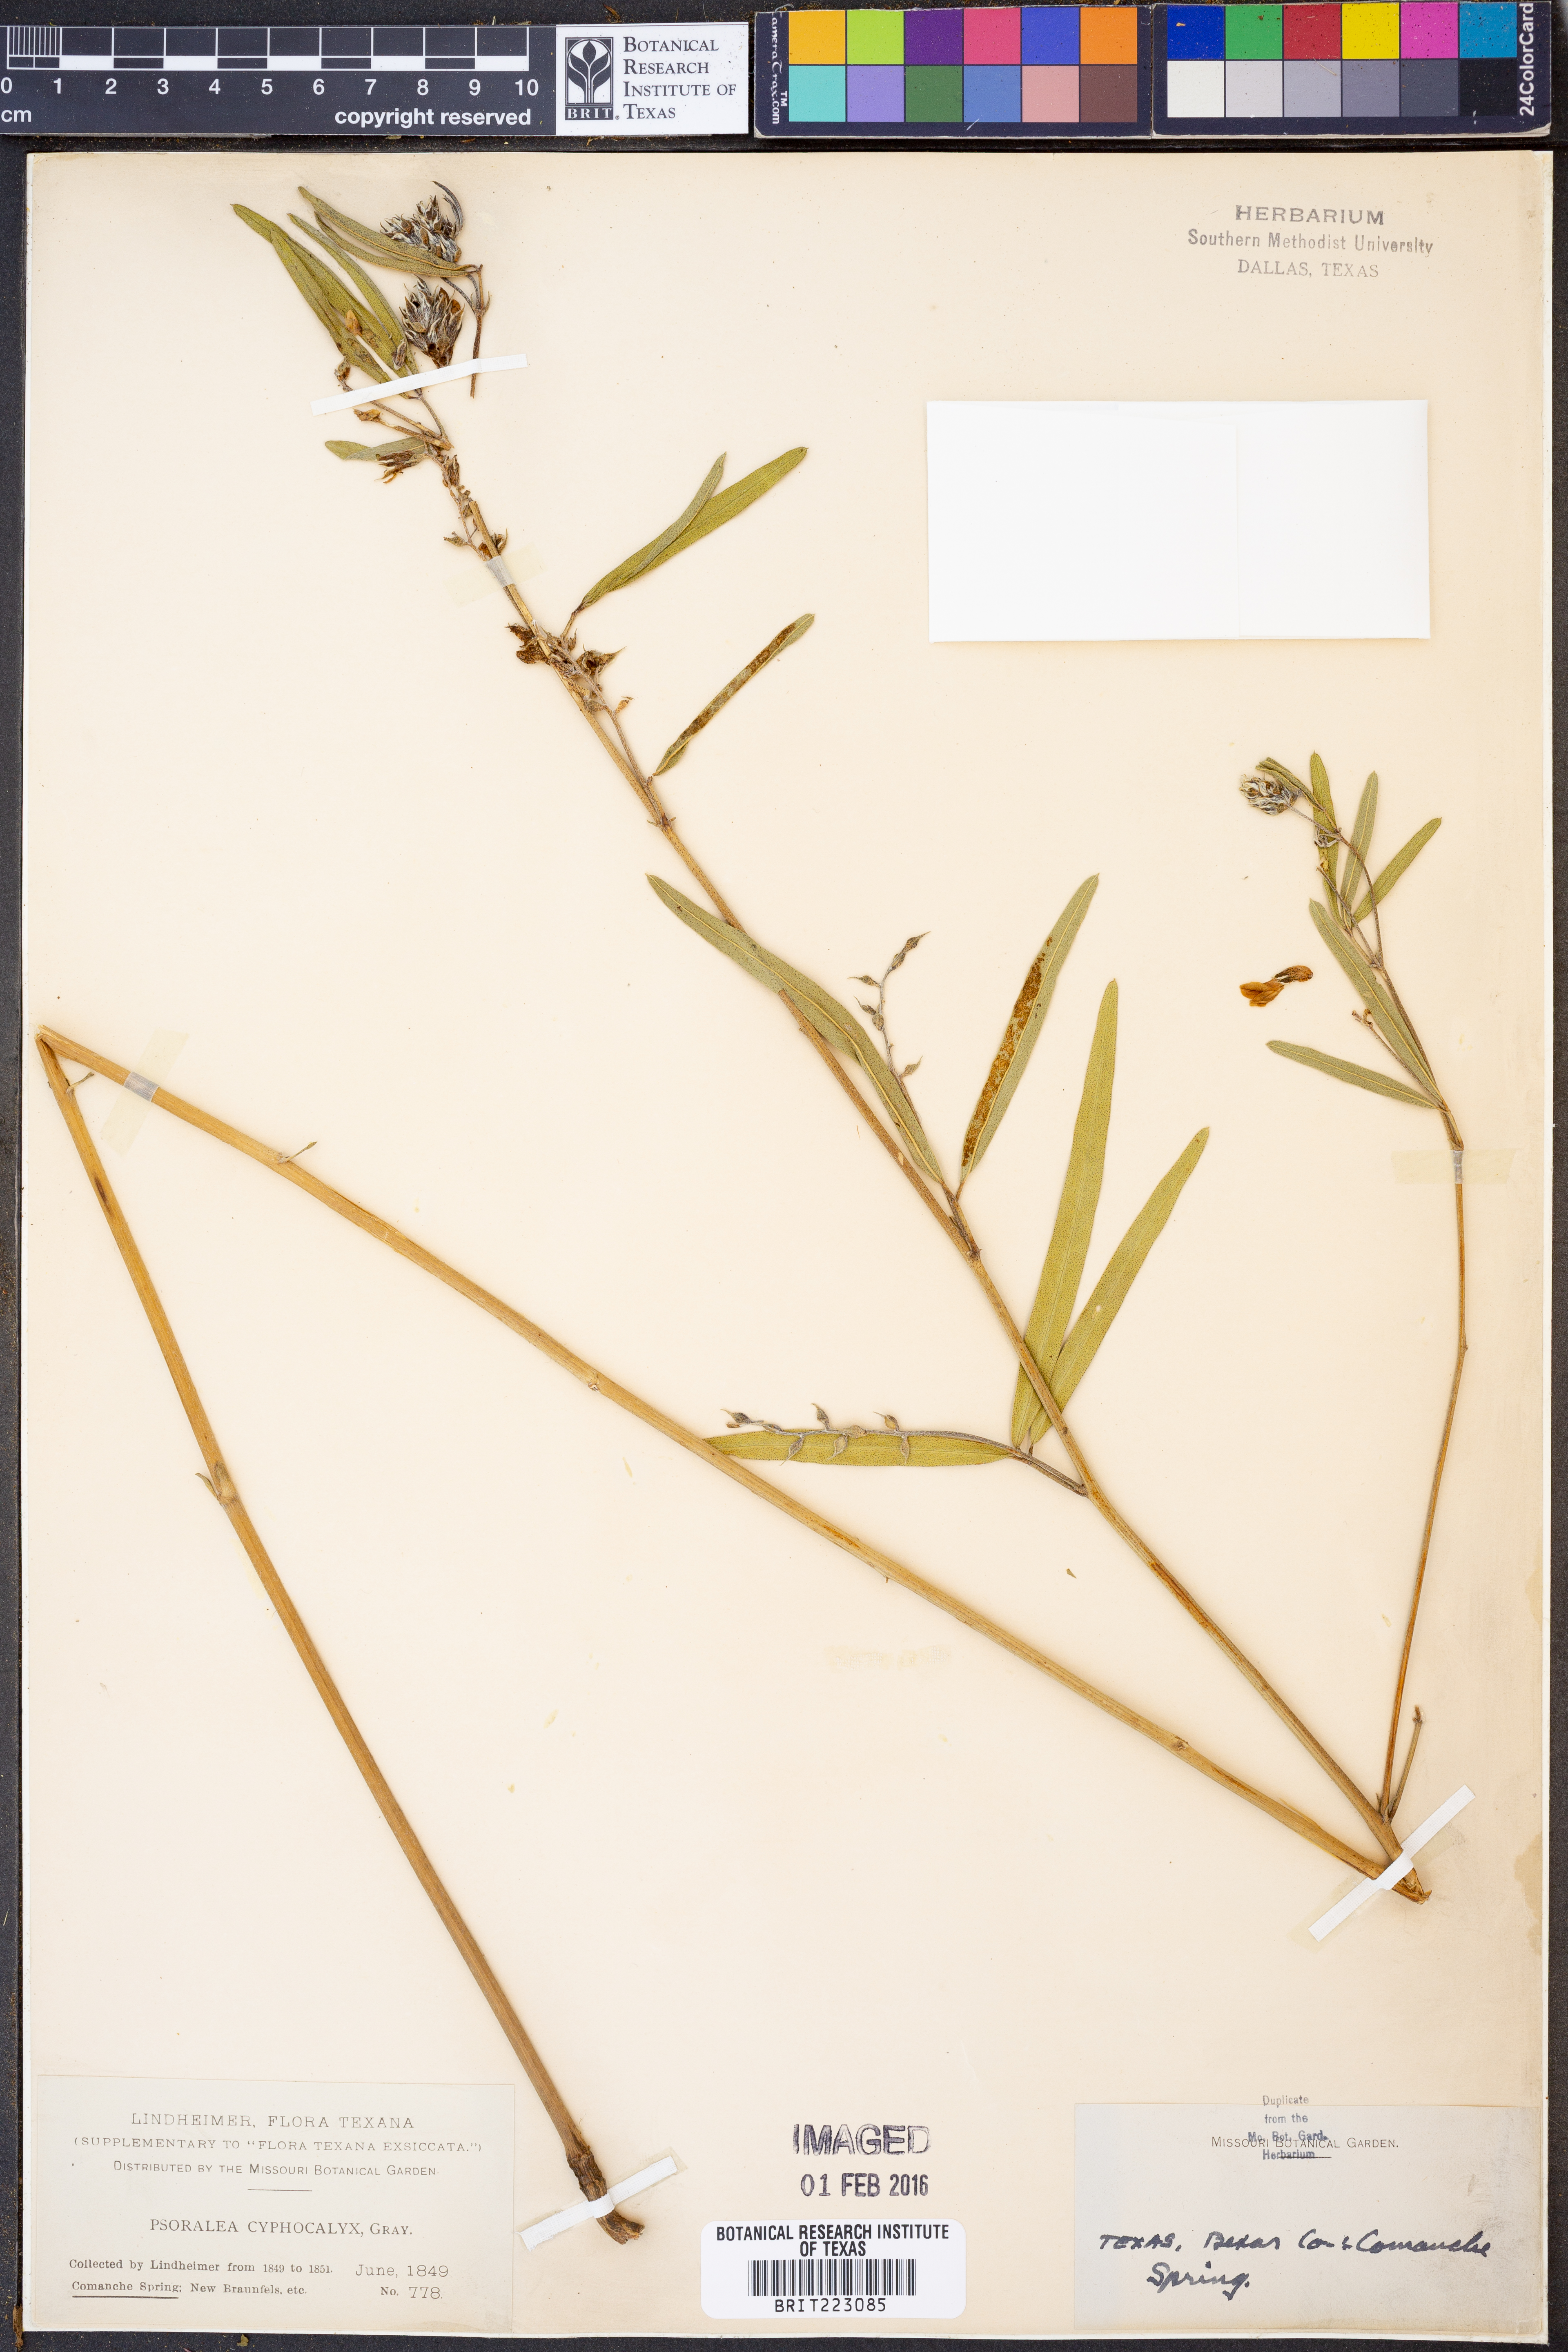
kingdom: Plantae
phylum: Tracheophyta
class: Magnoliopsida
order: Fabales
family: Fabaceae
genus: Pediomelum
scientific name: Pediomelum cyphocalyx
